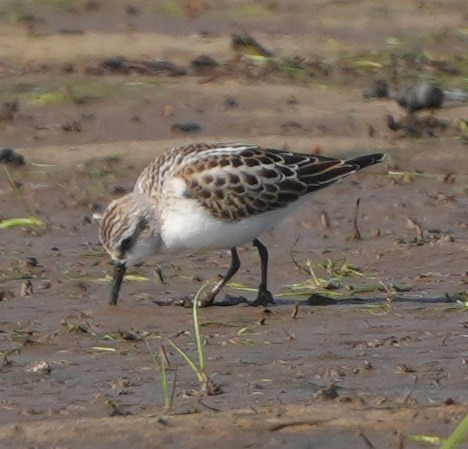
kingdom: Animalia
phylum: Chordata
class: Aves
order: Charadriiformes
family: Scolopacidae
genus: Calidris
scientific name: Calidris minuta
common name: Dværgryle
